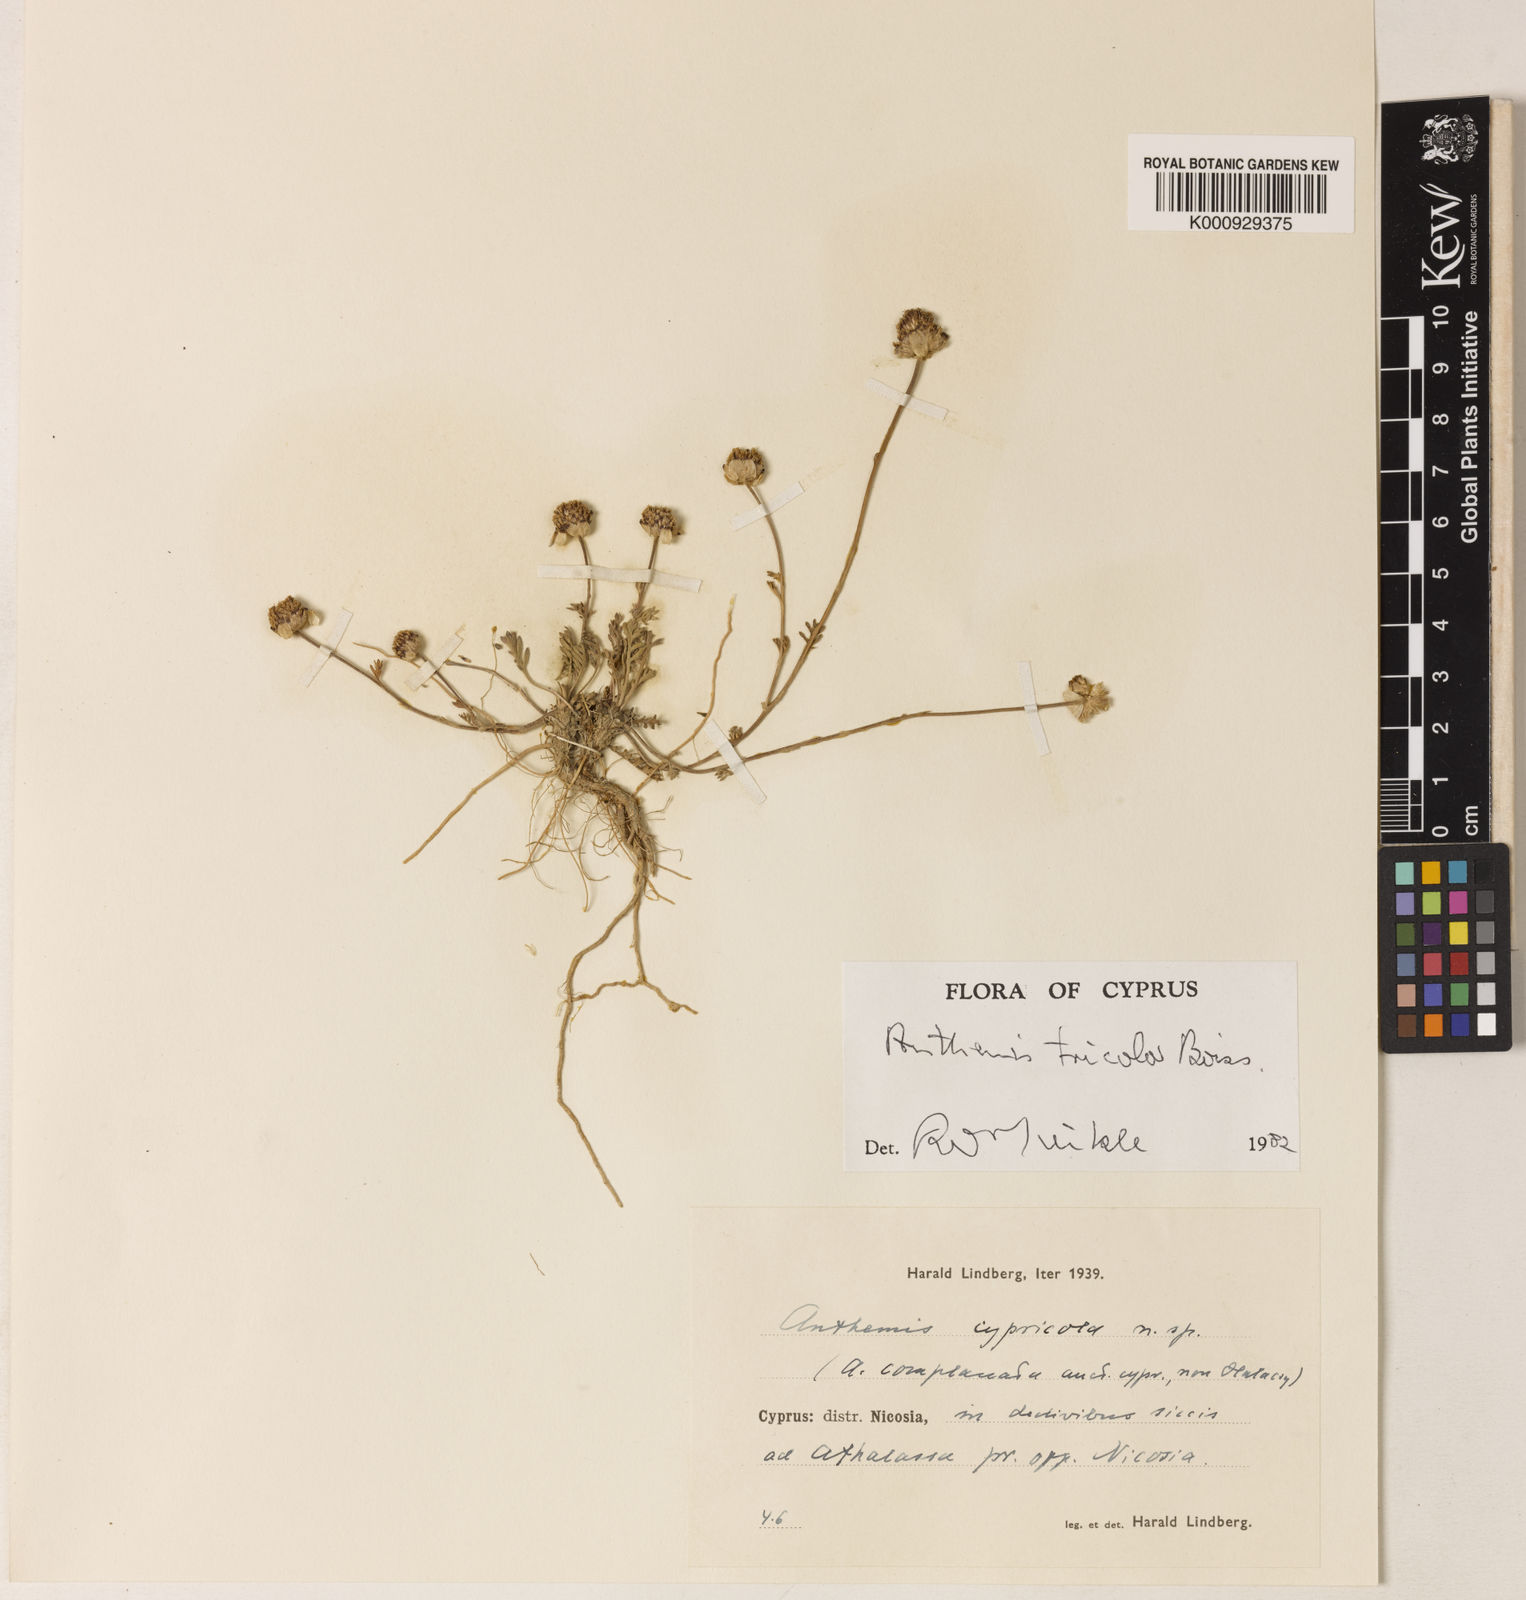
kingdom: Plantae
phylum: Tracheophyta
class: Magnoliopsida
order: Asterales
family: Asteraceae
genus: Anthemis
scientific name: Anthemis tricolor
